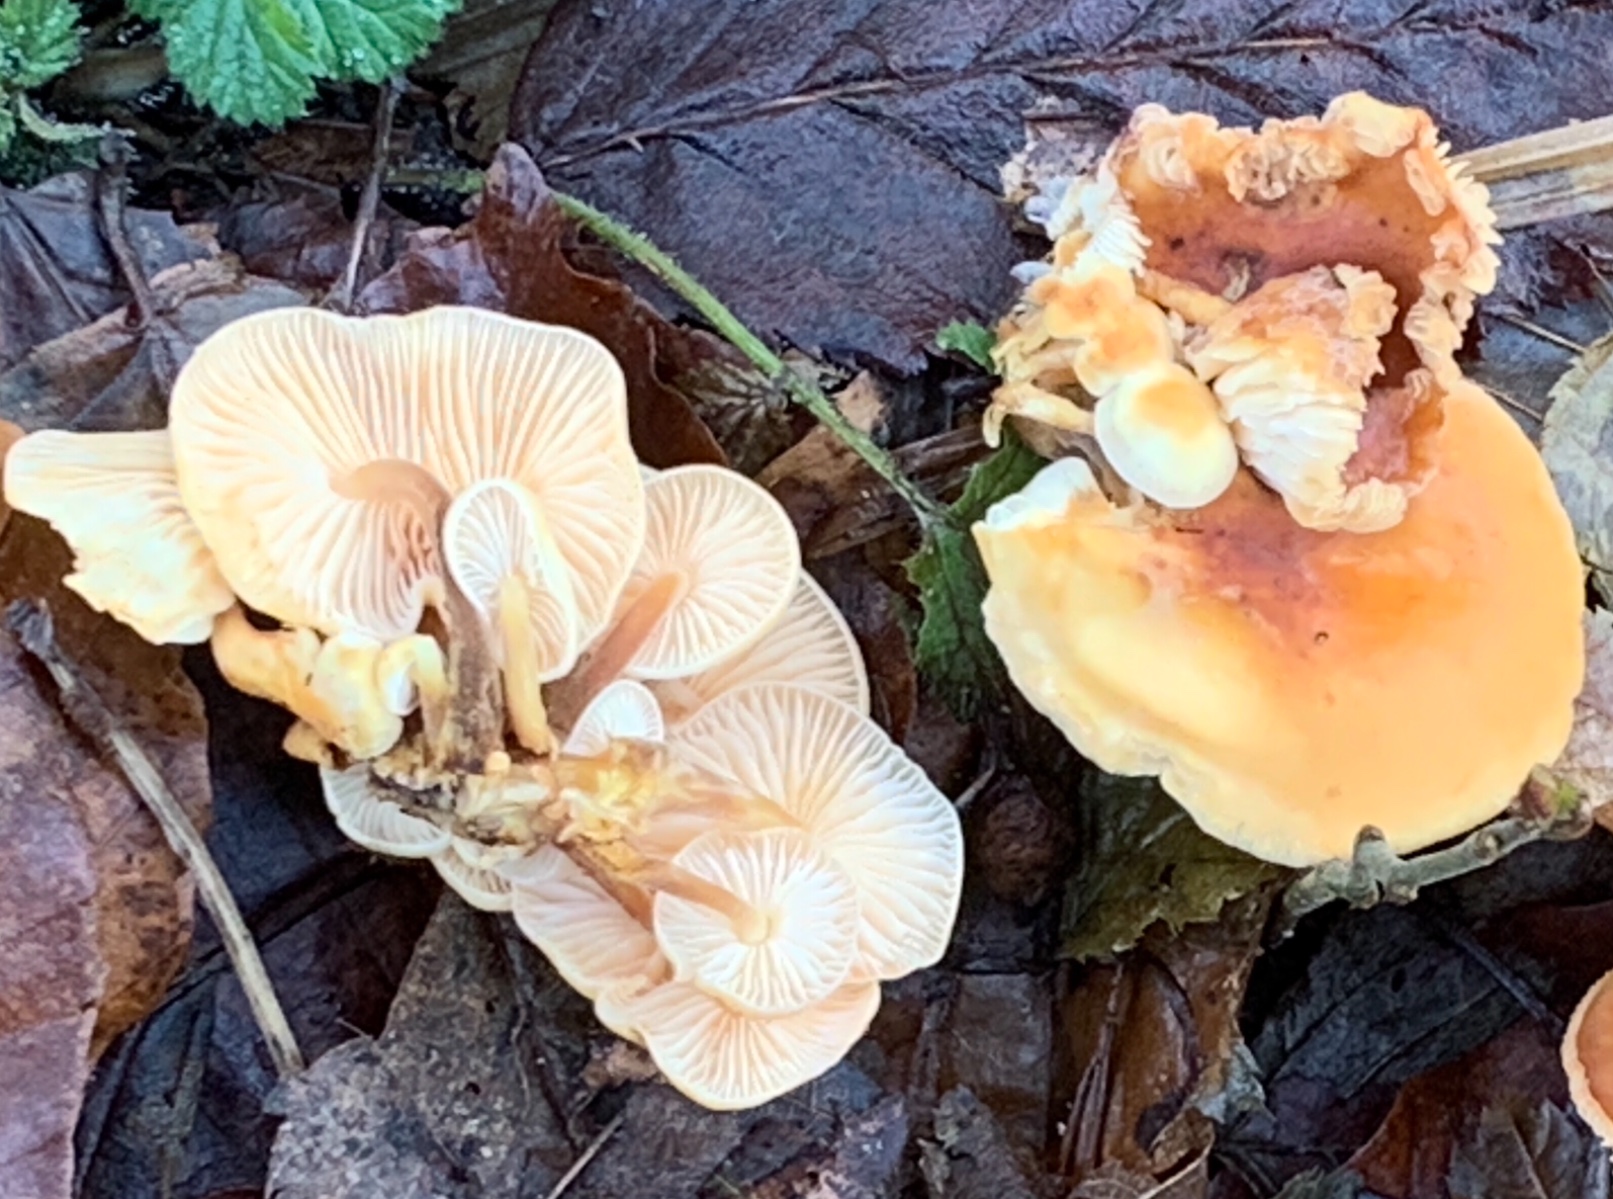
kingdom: Fungi
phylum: Basidiomycota
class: Agaricomycetes
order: Agaricales
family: Physalacriaceae
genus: Flammulina
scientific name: Flammulina velutipes
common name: gul fløjlsfod
